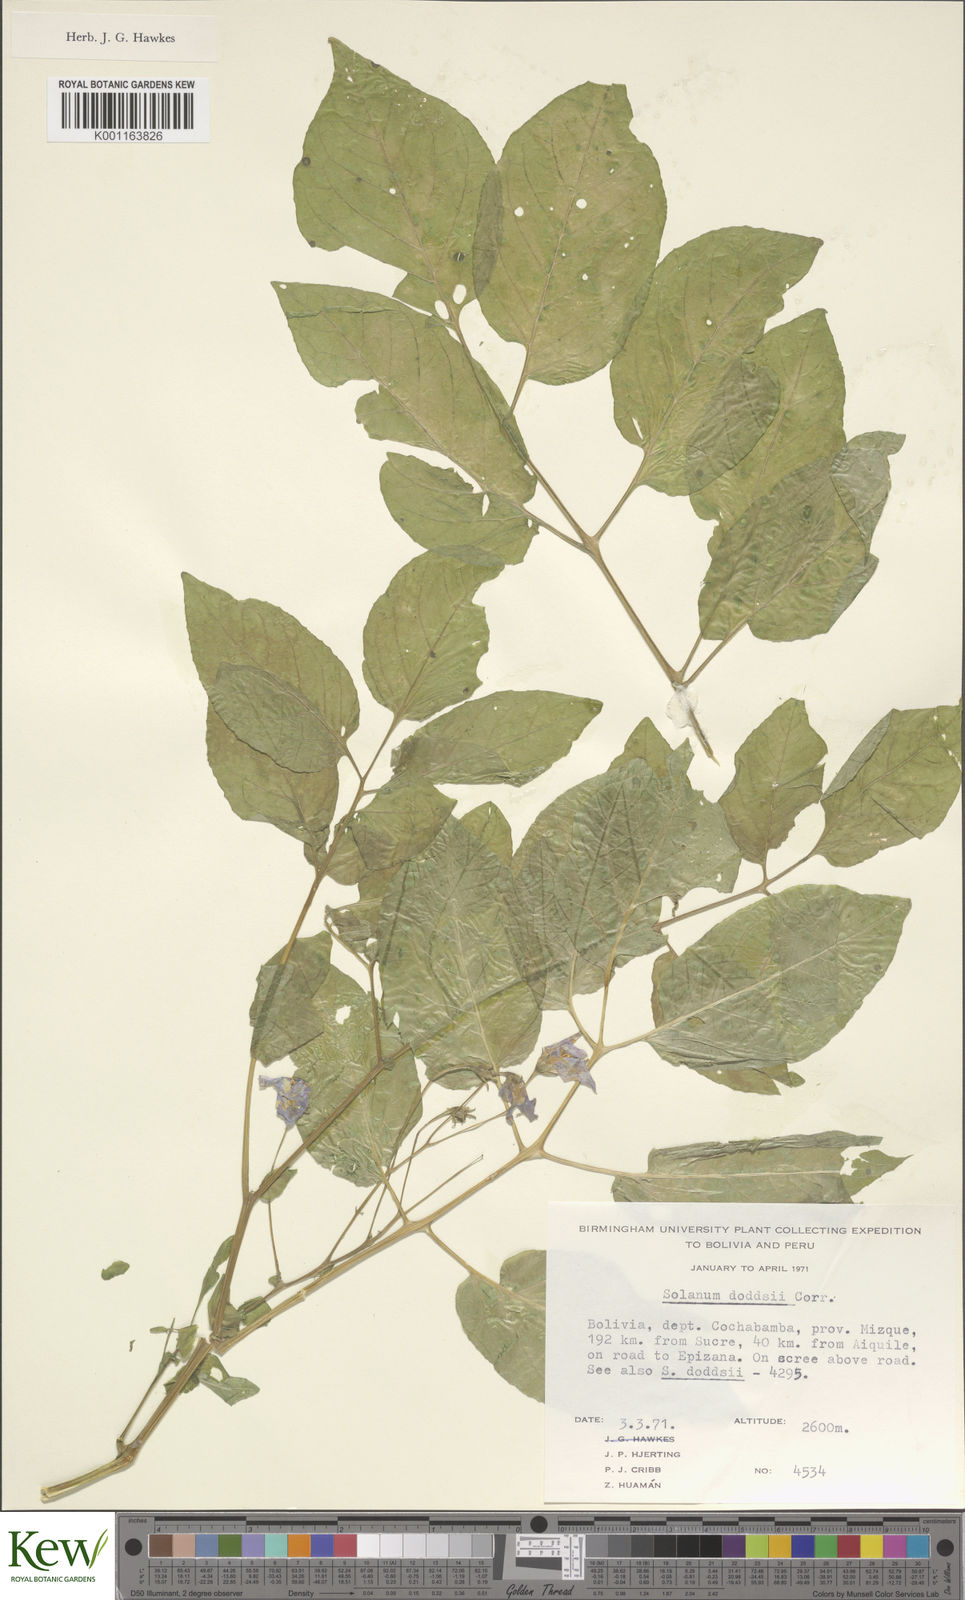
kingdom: Plantae
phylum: Tracheophyta
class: Magnoliopsida
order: Solanales
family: Solanaceae
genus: Solanum
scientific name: Solanum doddsii
